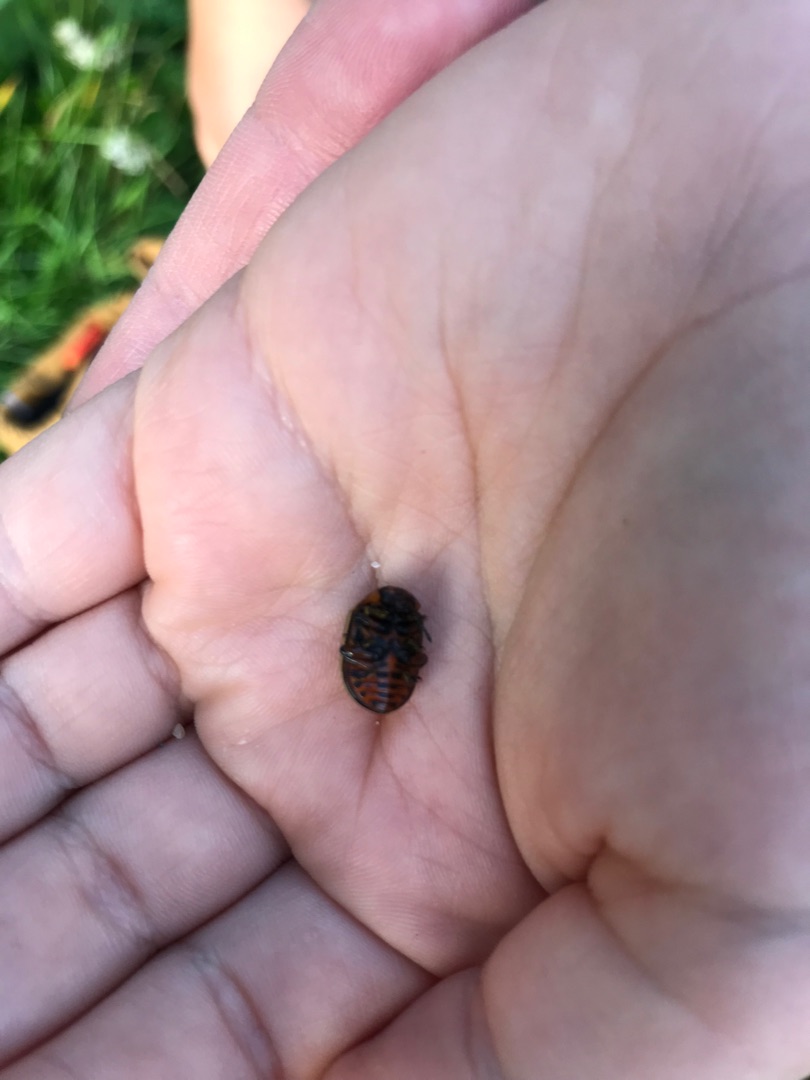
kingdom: Animalia
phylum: Arthropoda
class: Insecta
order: Coleoptera
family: Chrysomelidae
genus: Leptinotarsa
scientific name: Leptinotarsa decemlineata
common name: Coloradobille
